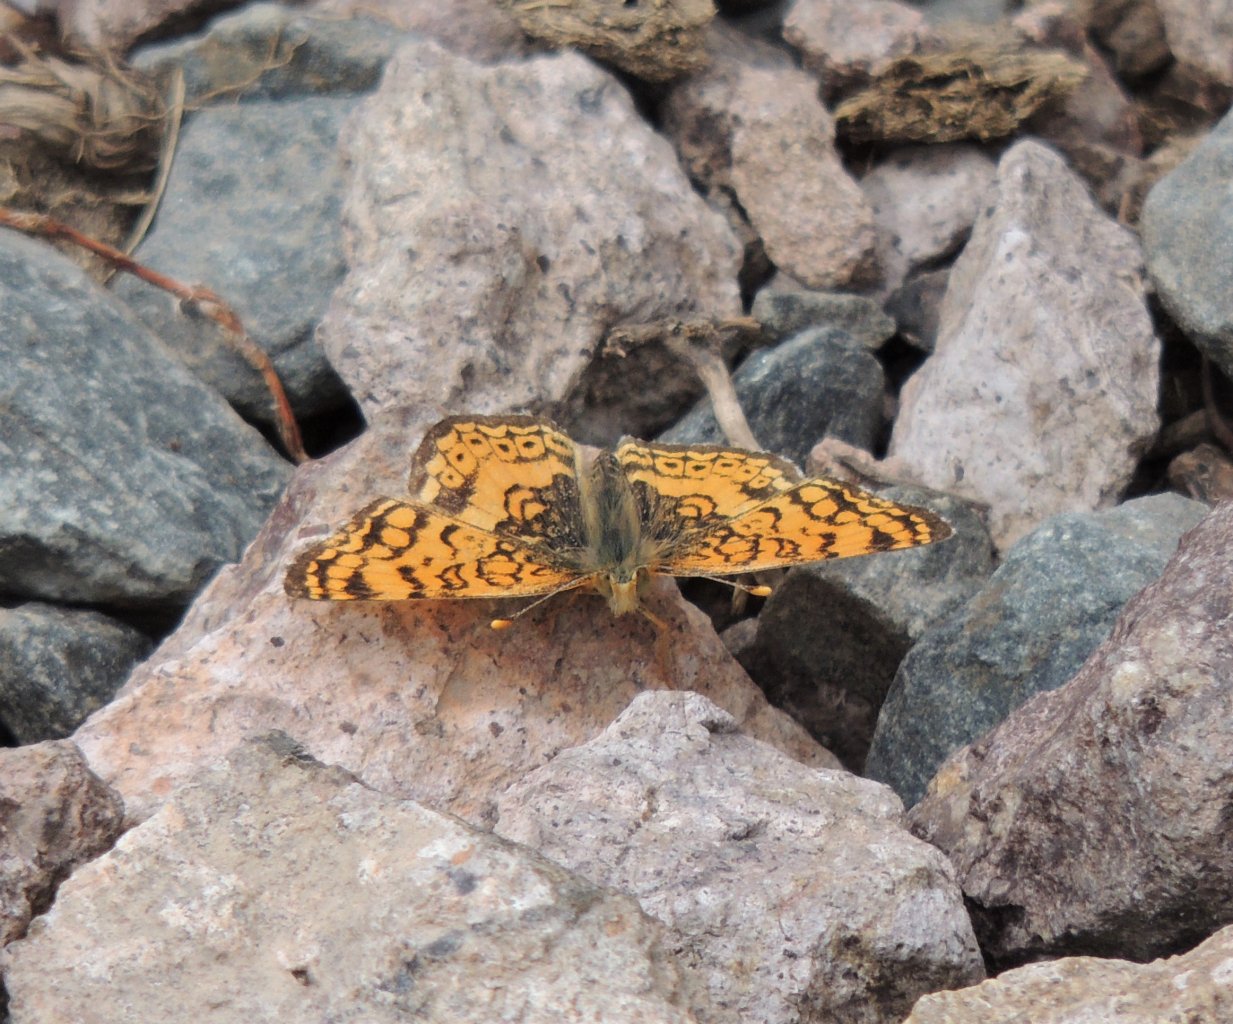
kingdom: Animalia
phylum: Arthropoda
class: Insecta
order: Lepidoptera
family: Nymphalidae
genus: Eresia
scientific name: Eresia aveyrona
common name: Mylitta Crescent
